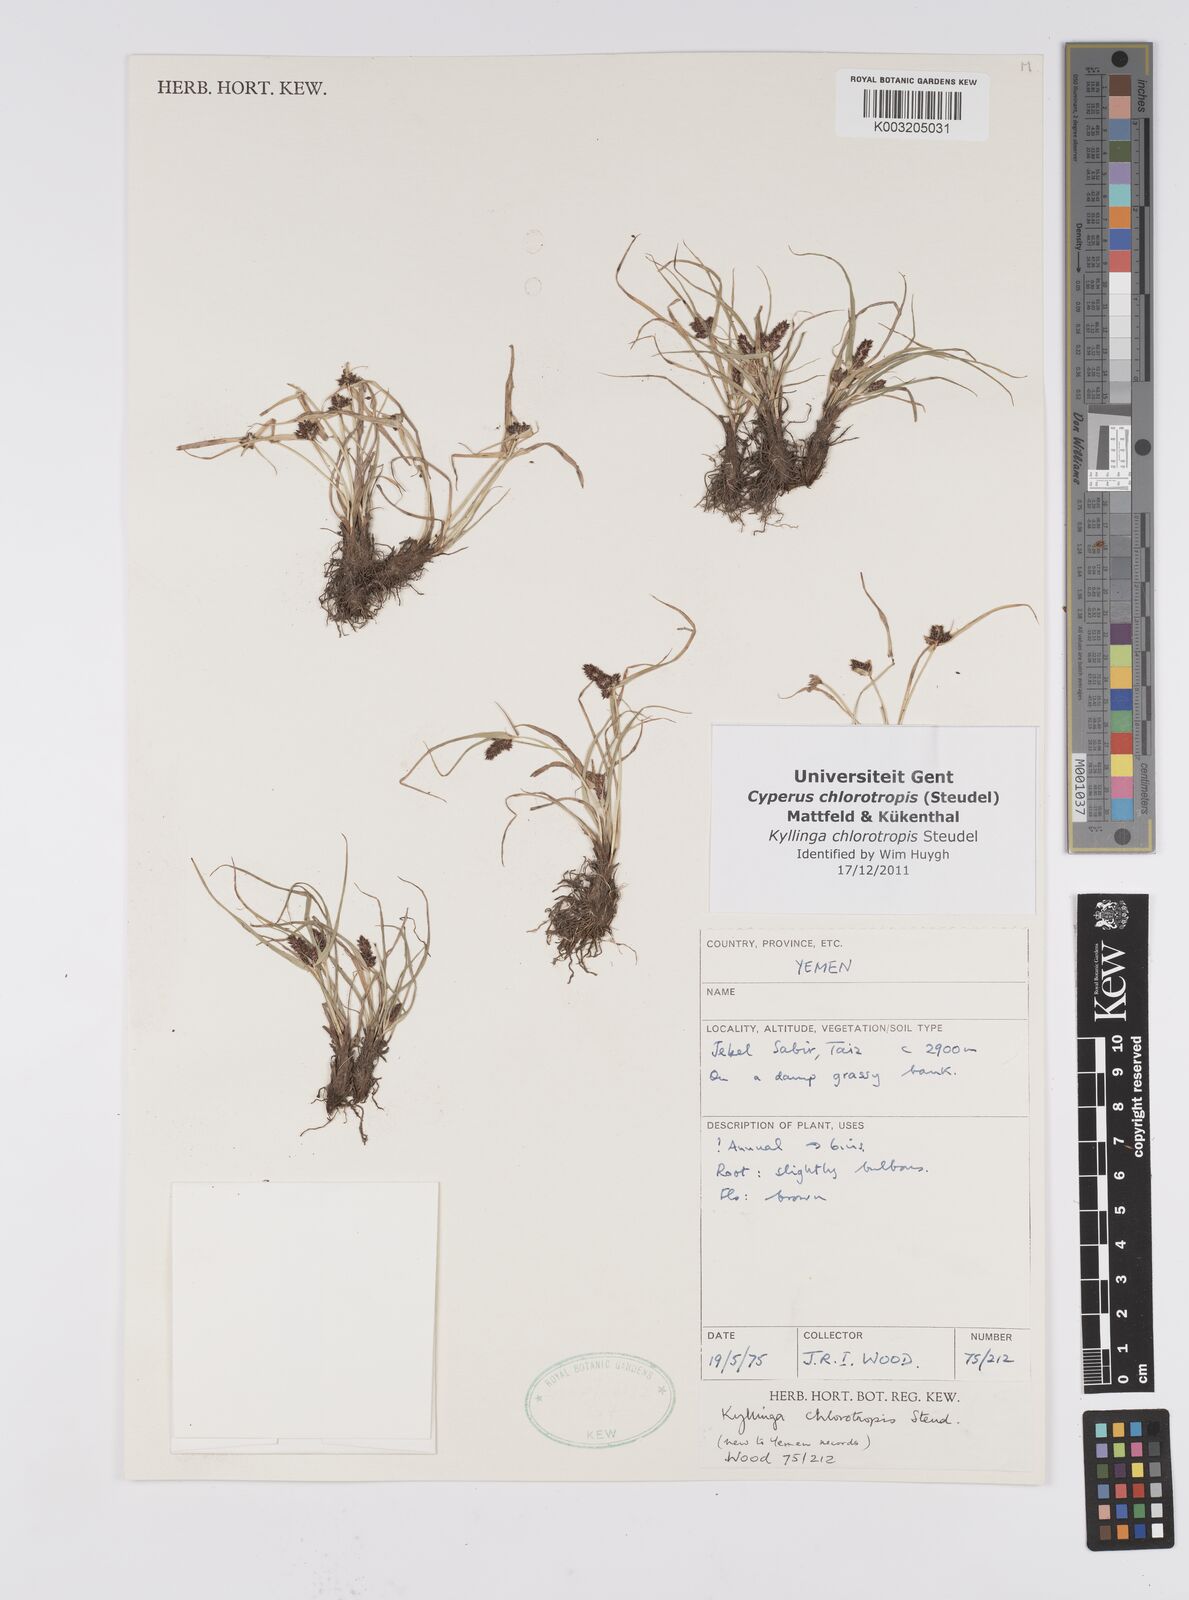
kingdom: Plantae
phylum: Tracheophyta
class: Liliopsida
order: Poales
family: Cyperaceae
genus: Cyperus
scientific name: Cyperus chlorotropis
